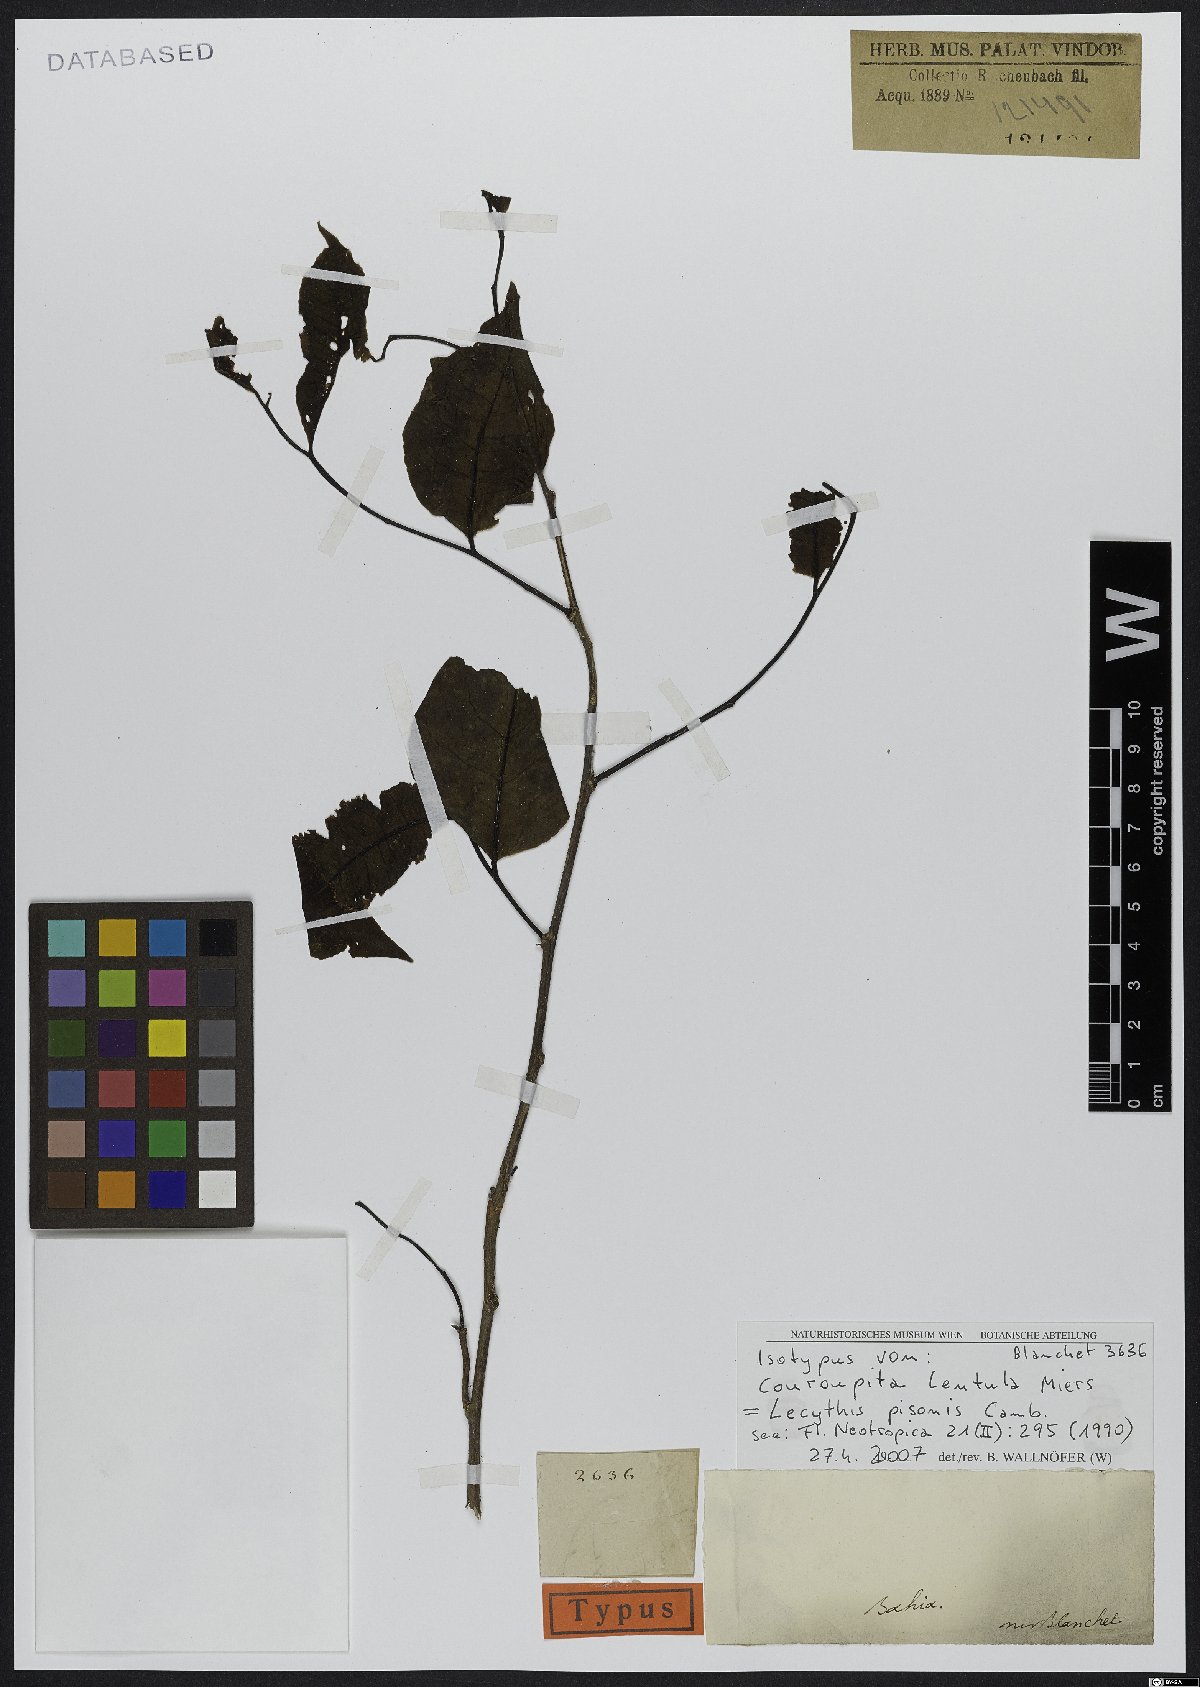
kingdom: Plantae
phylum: Tracheophyta
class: Magnoliopsida
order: Ericales
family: Lecythidaceae
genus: Lecythis
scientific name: Lecythis pisonis
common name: Paradise-nut
